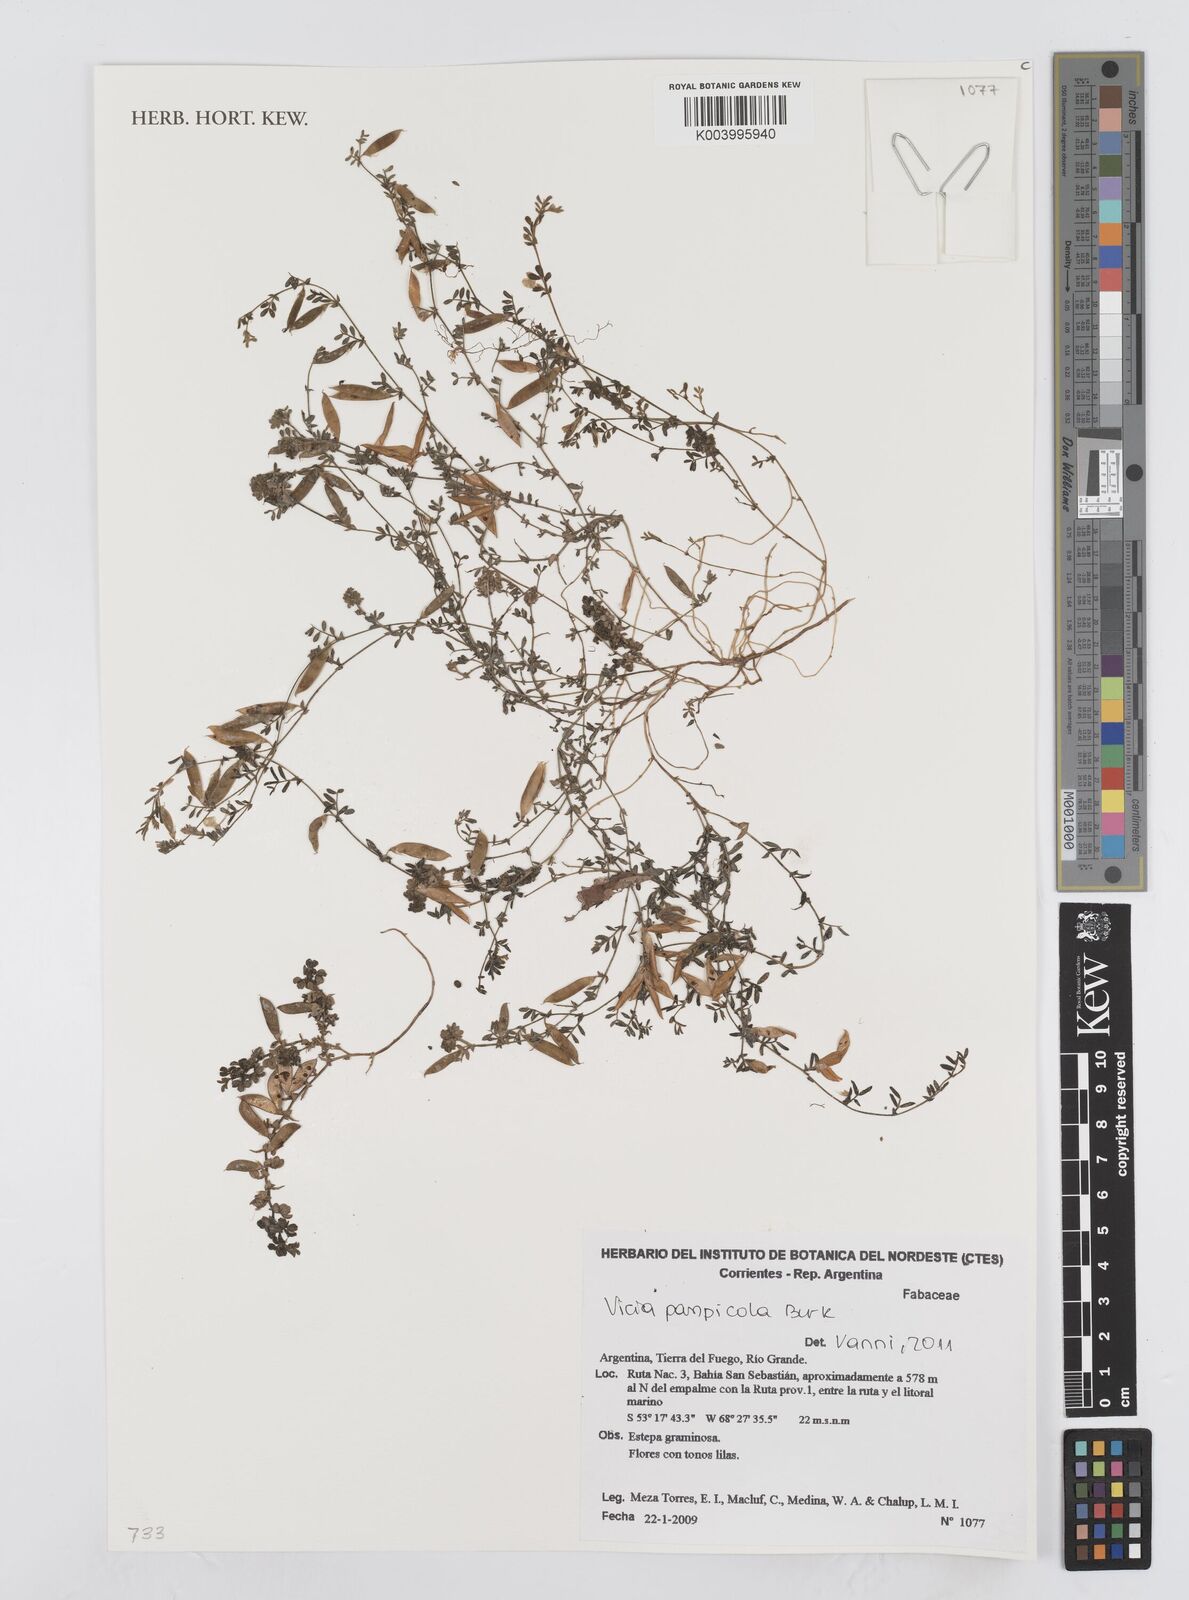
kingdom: Plantae
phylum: Tracheophyta
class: Magnoliopsida
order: Fabales
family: Fabaceae
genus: Vicia
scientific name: Vicia pampicola
